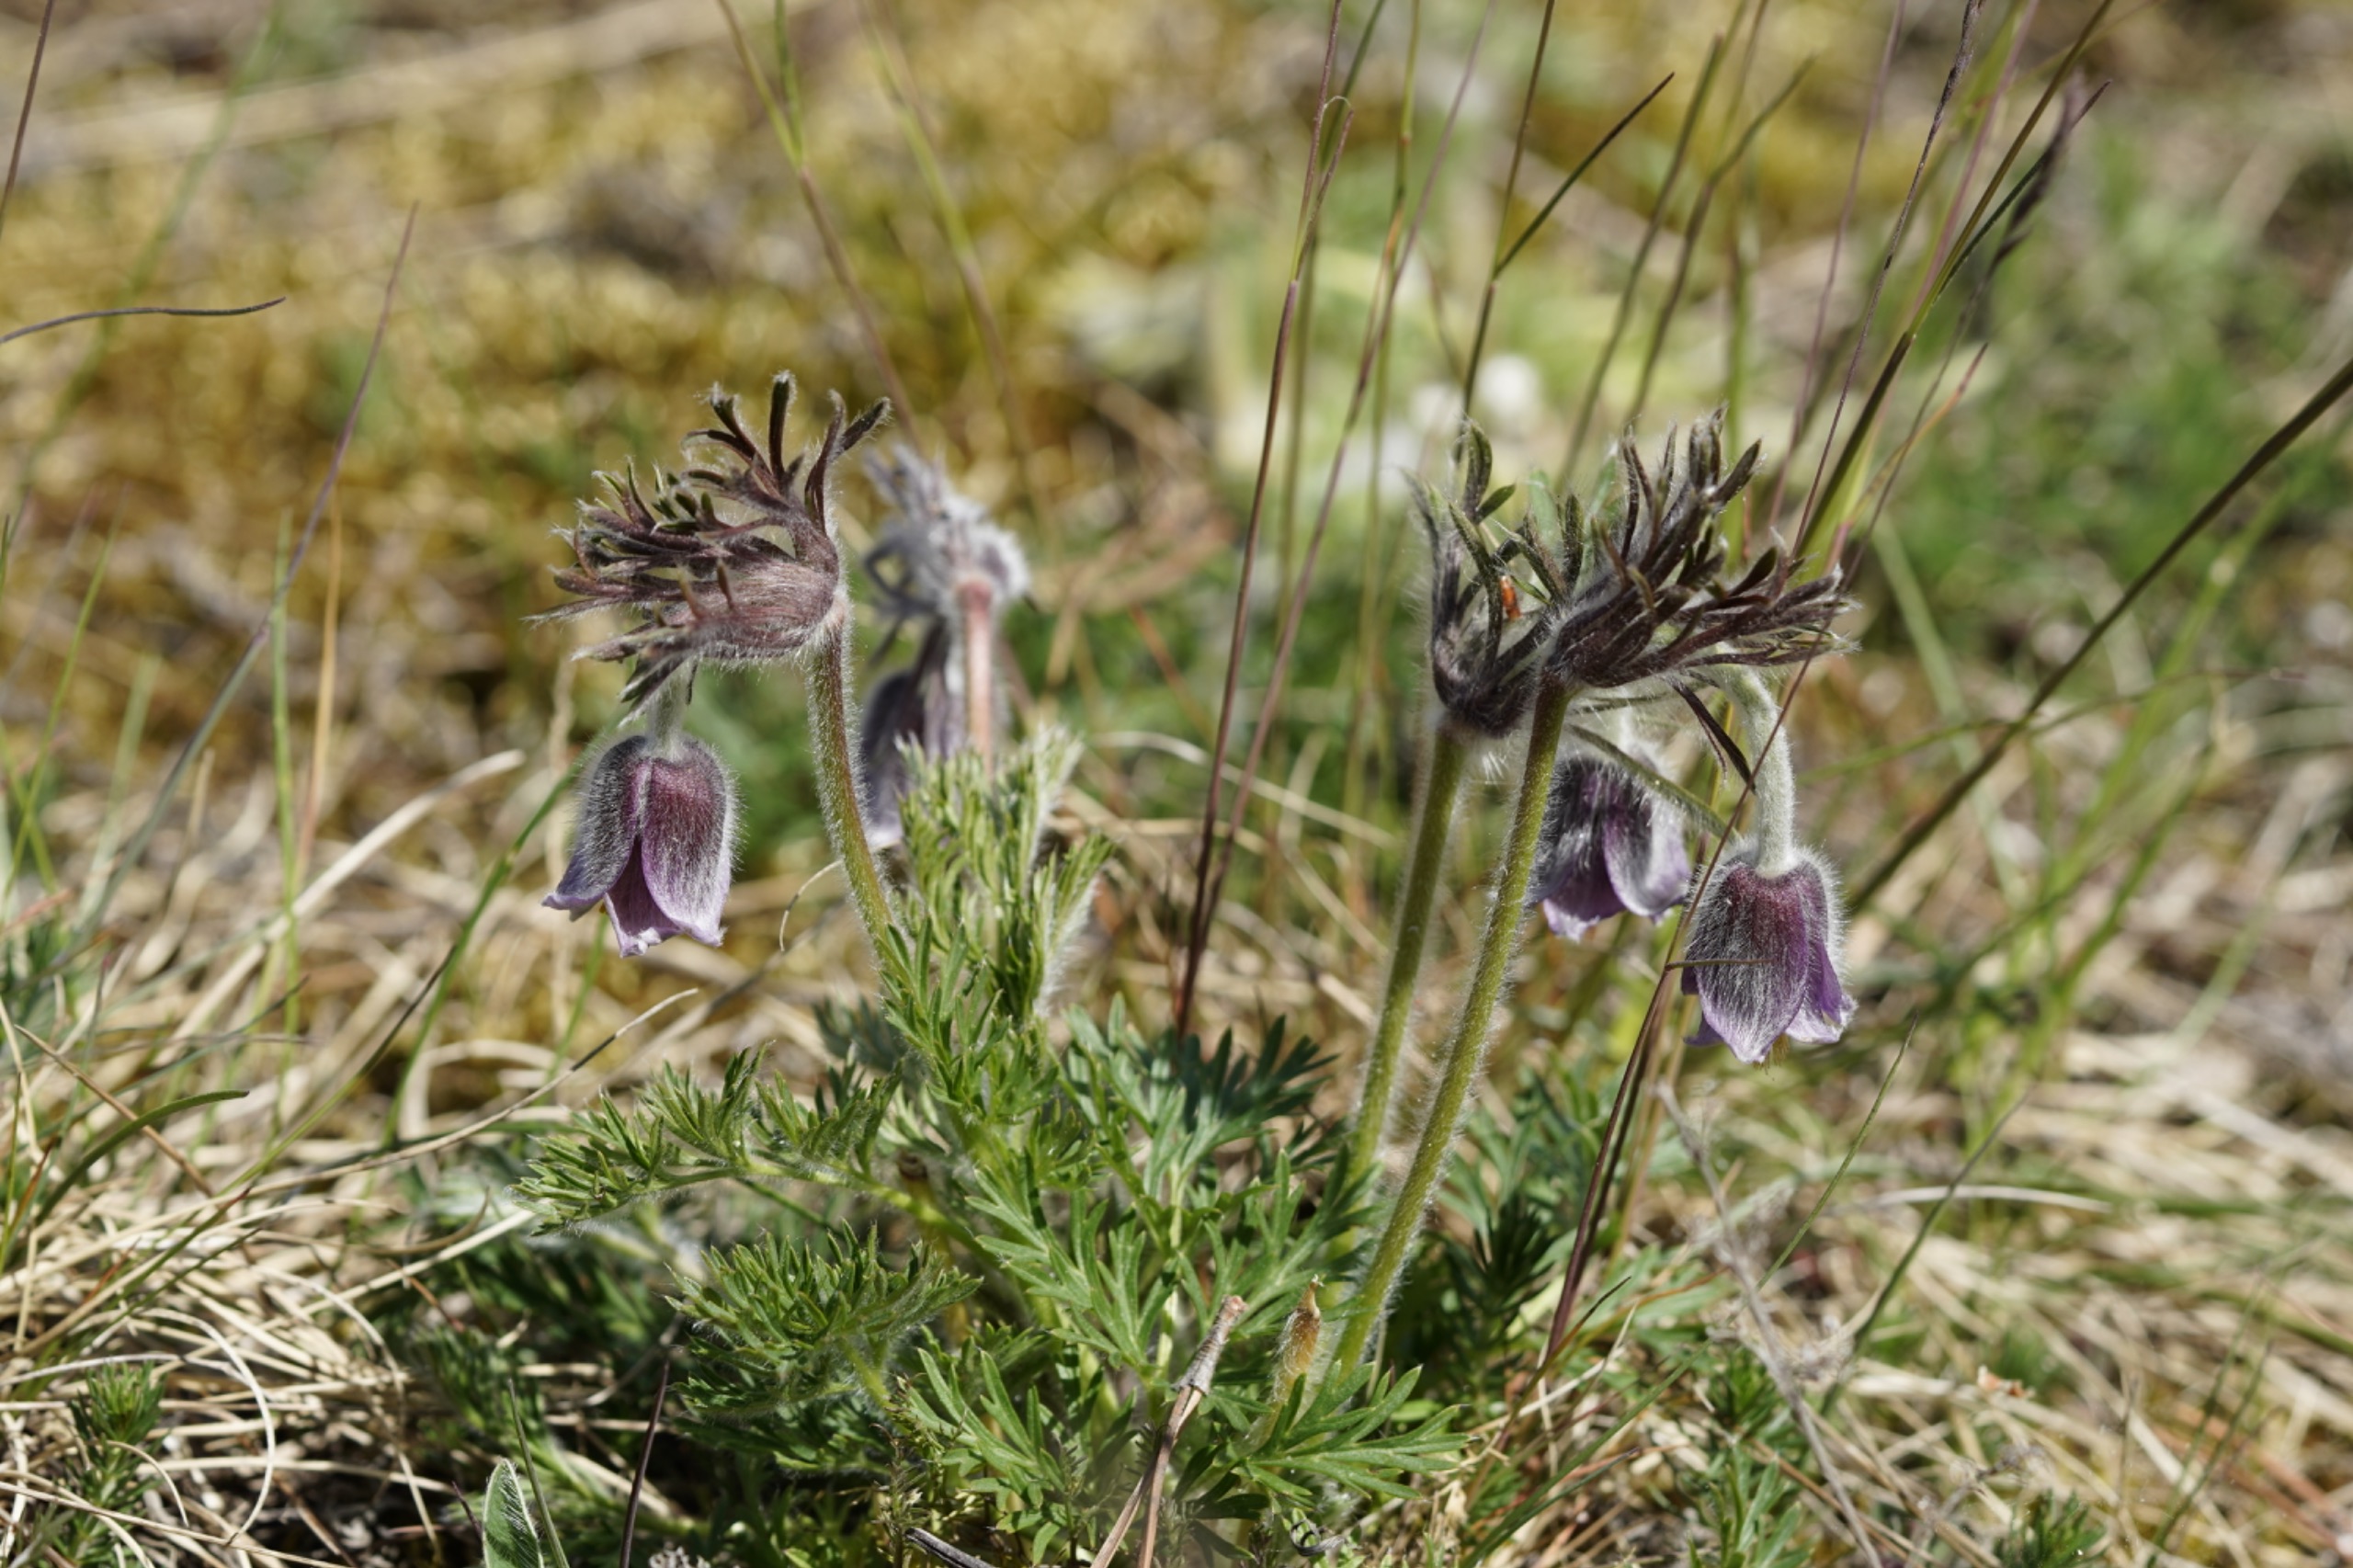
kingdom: Plantae
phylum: Tracheophyta
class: Magnoliopsida
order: Ranunculales
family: Ranunculaceae
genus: Pulsatilla
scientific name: Pulsatilla pratensis
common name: Nikkende kobjælde
